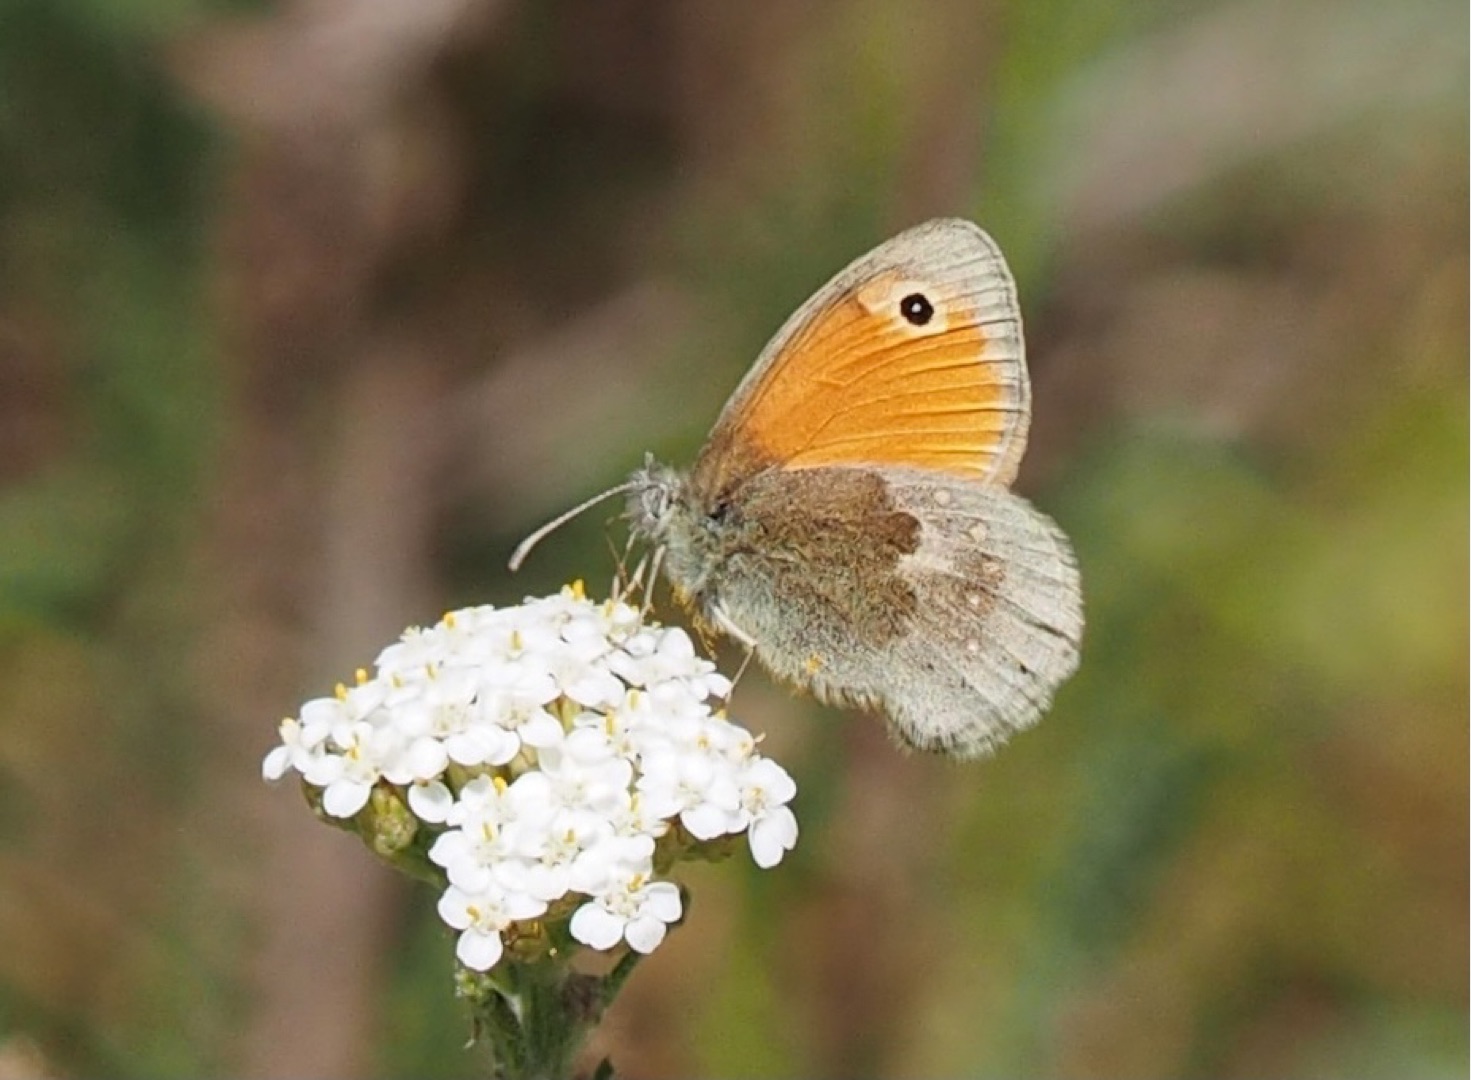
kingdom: Animalia
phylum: Arthropoda
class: Insecta
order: Lepidoptera
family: Nymphalidae
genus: Coenonympha
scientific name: Coenonympha pamphilus
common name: Okkergul randøje
